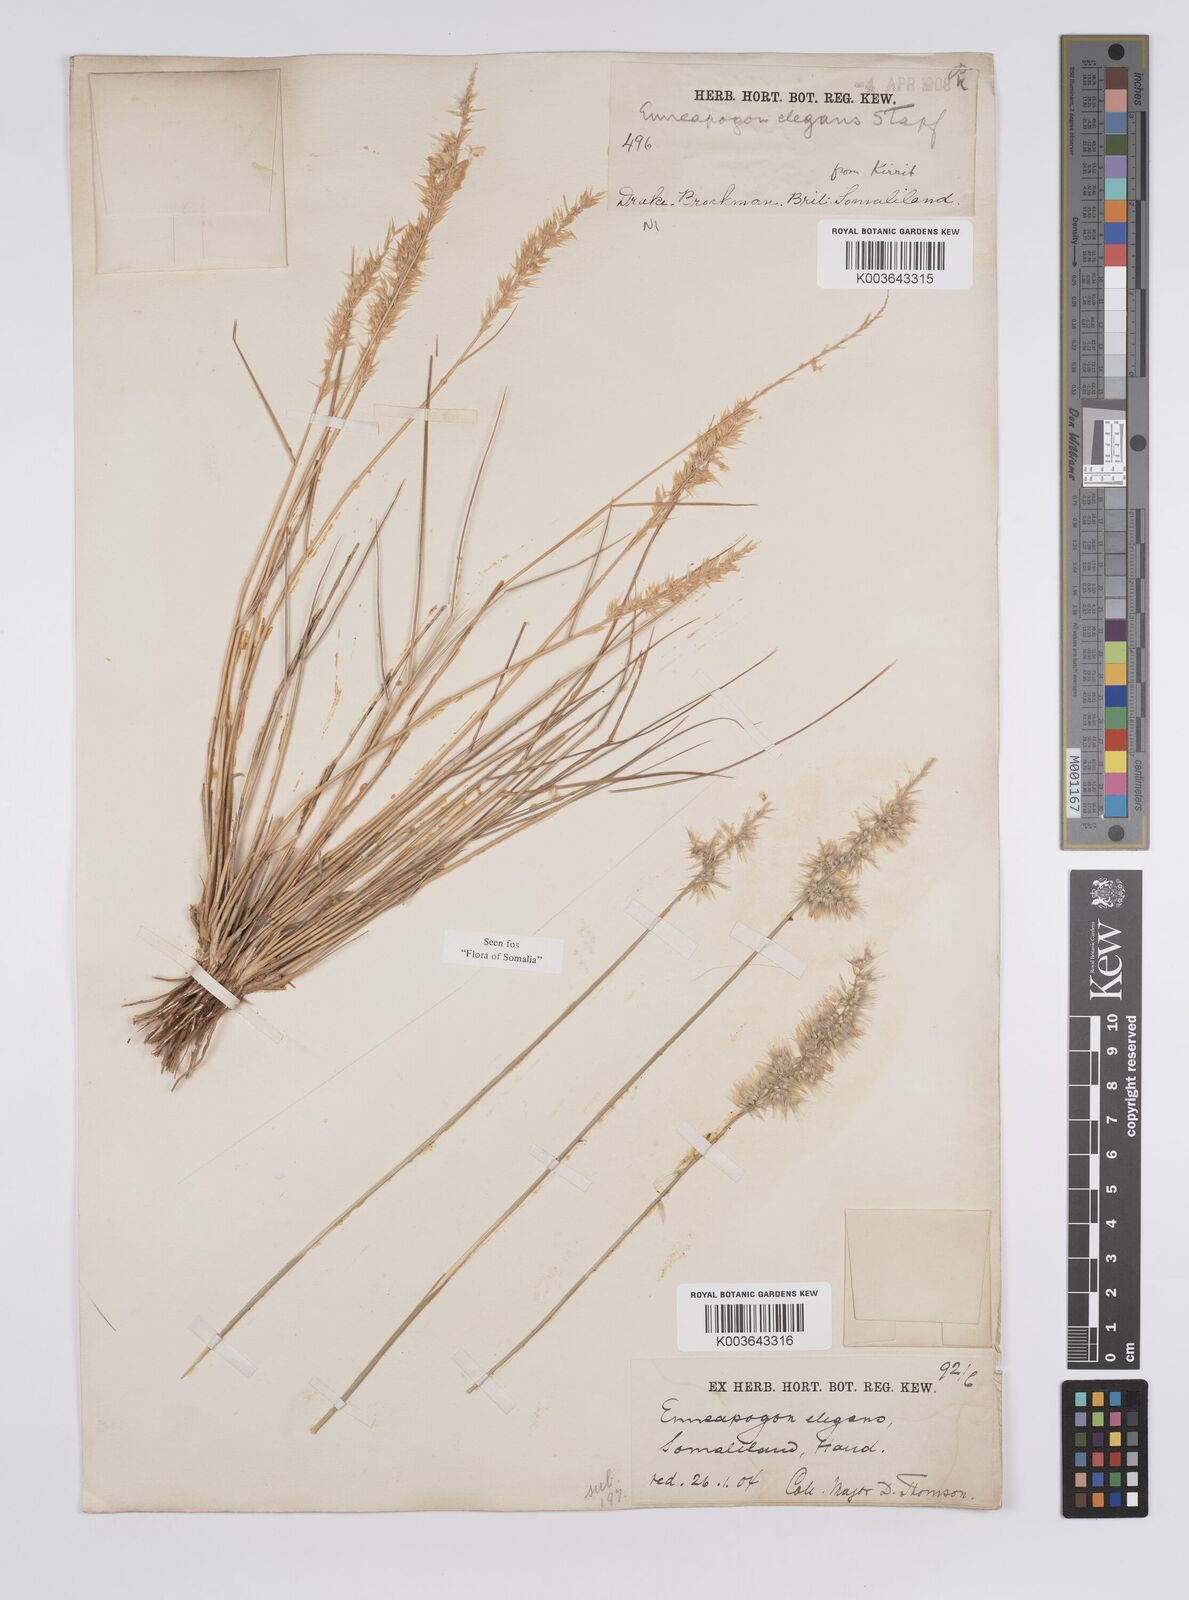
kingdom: Plantae
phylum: Tracheophyta
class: Liliopsida
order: Poales
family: Poaceae
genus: Enneapogon
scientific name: Enneapogon persicus
